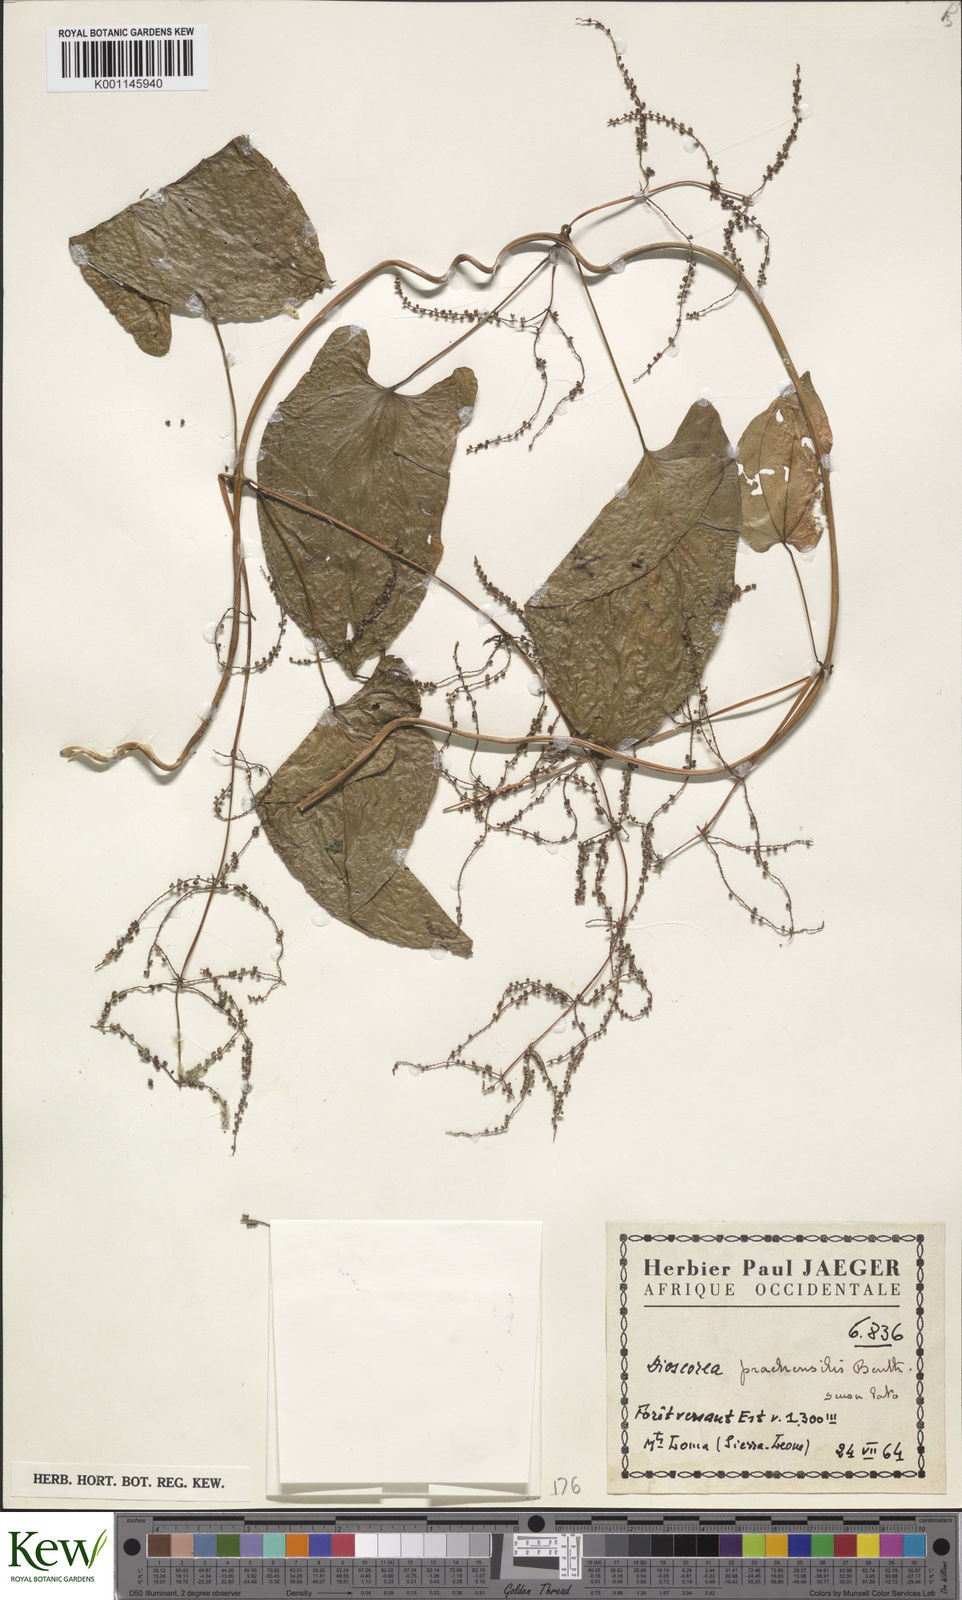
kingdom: Plantae
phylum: Tracheophyta
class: Liliopsida
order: Dioscoreales
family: Dioscoreaceae
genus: Dioscorea
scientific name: Dioscorea praehensilis
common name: Bush yam
